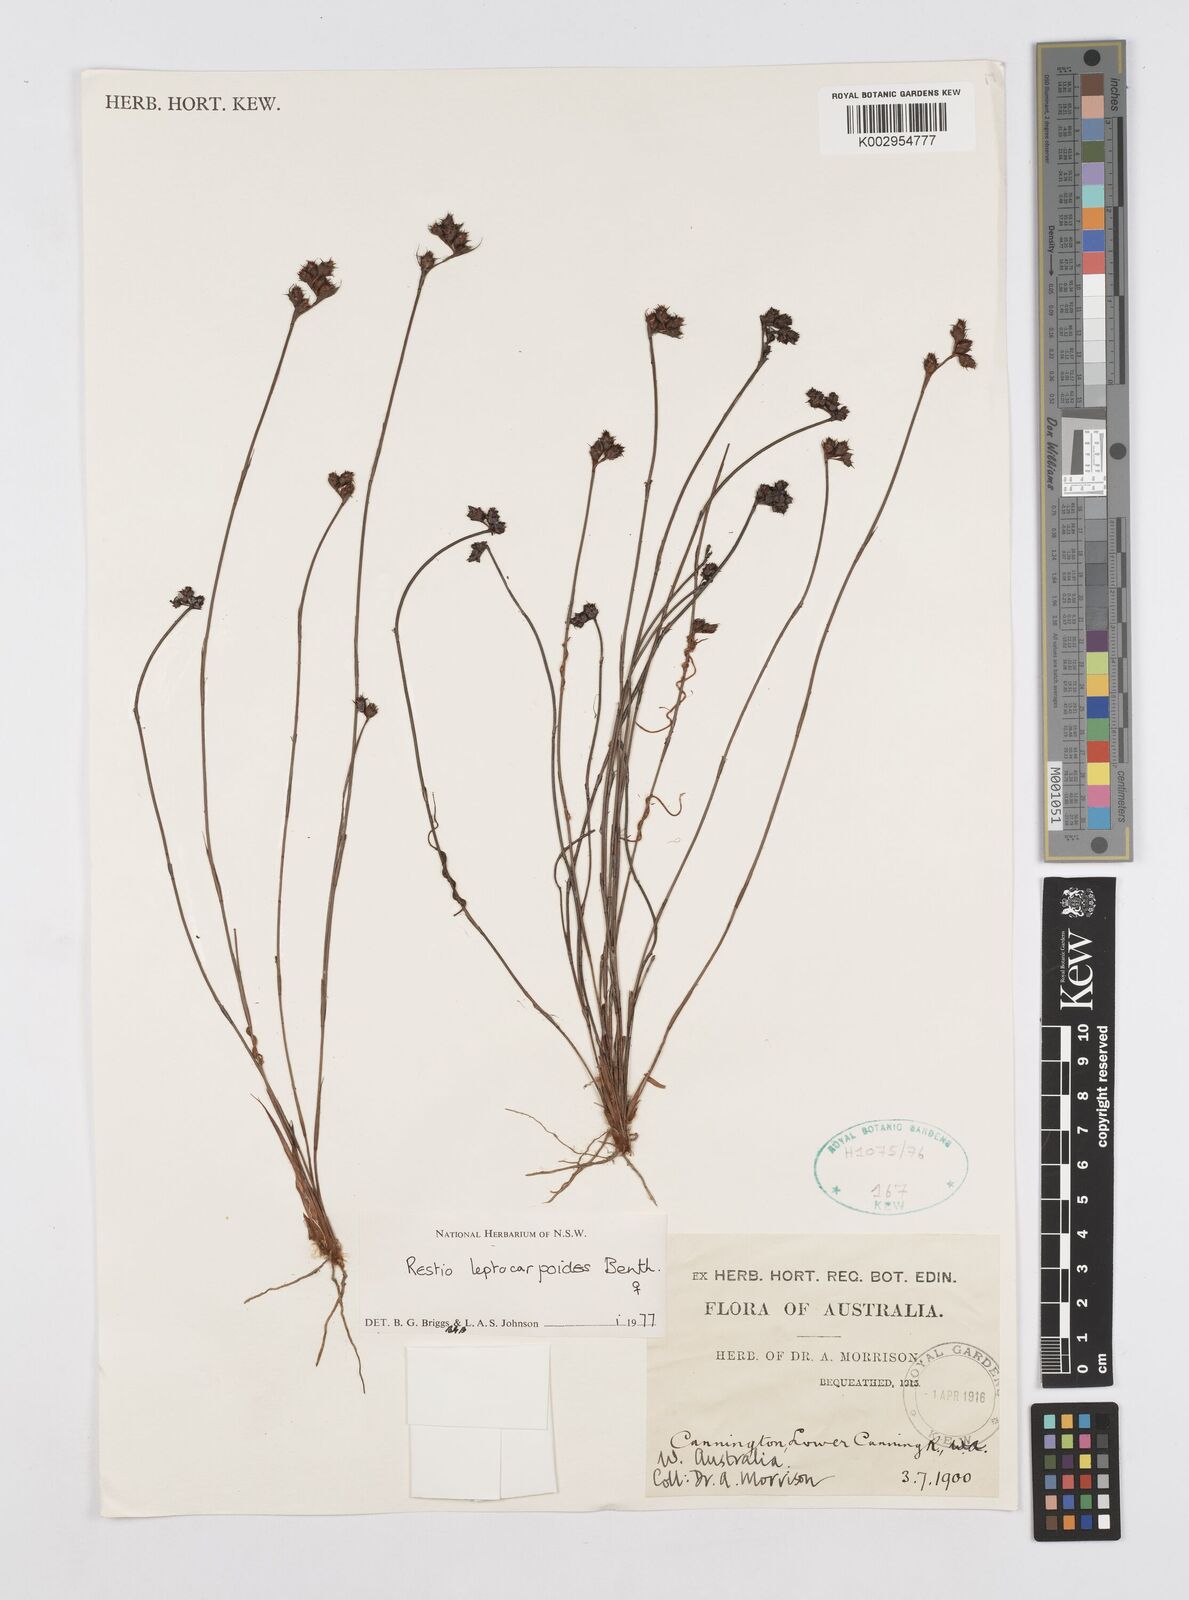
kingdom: Plantae
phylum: Tracheophyta
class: Liliopsida
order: Poales
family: Restionaceae
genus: Cytogonidium
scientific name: Cytogonidium leptocarpoides
